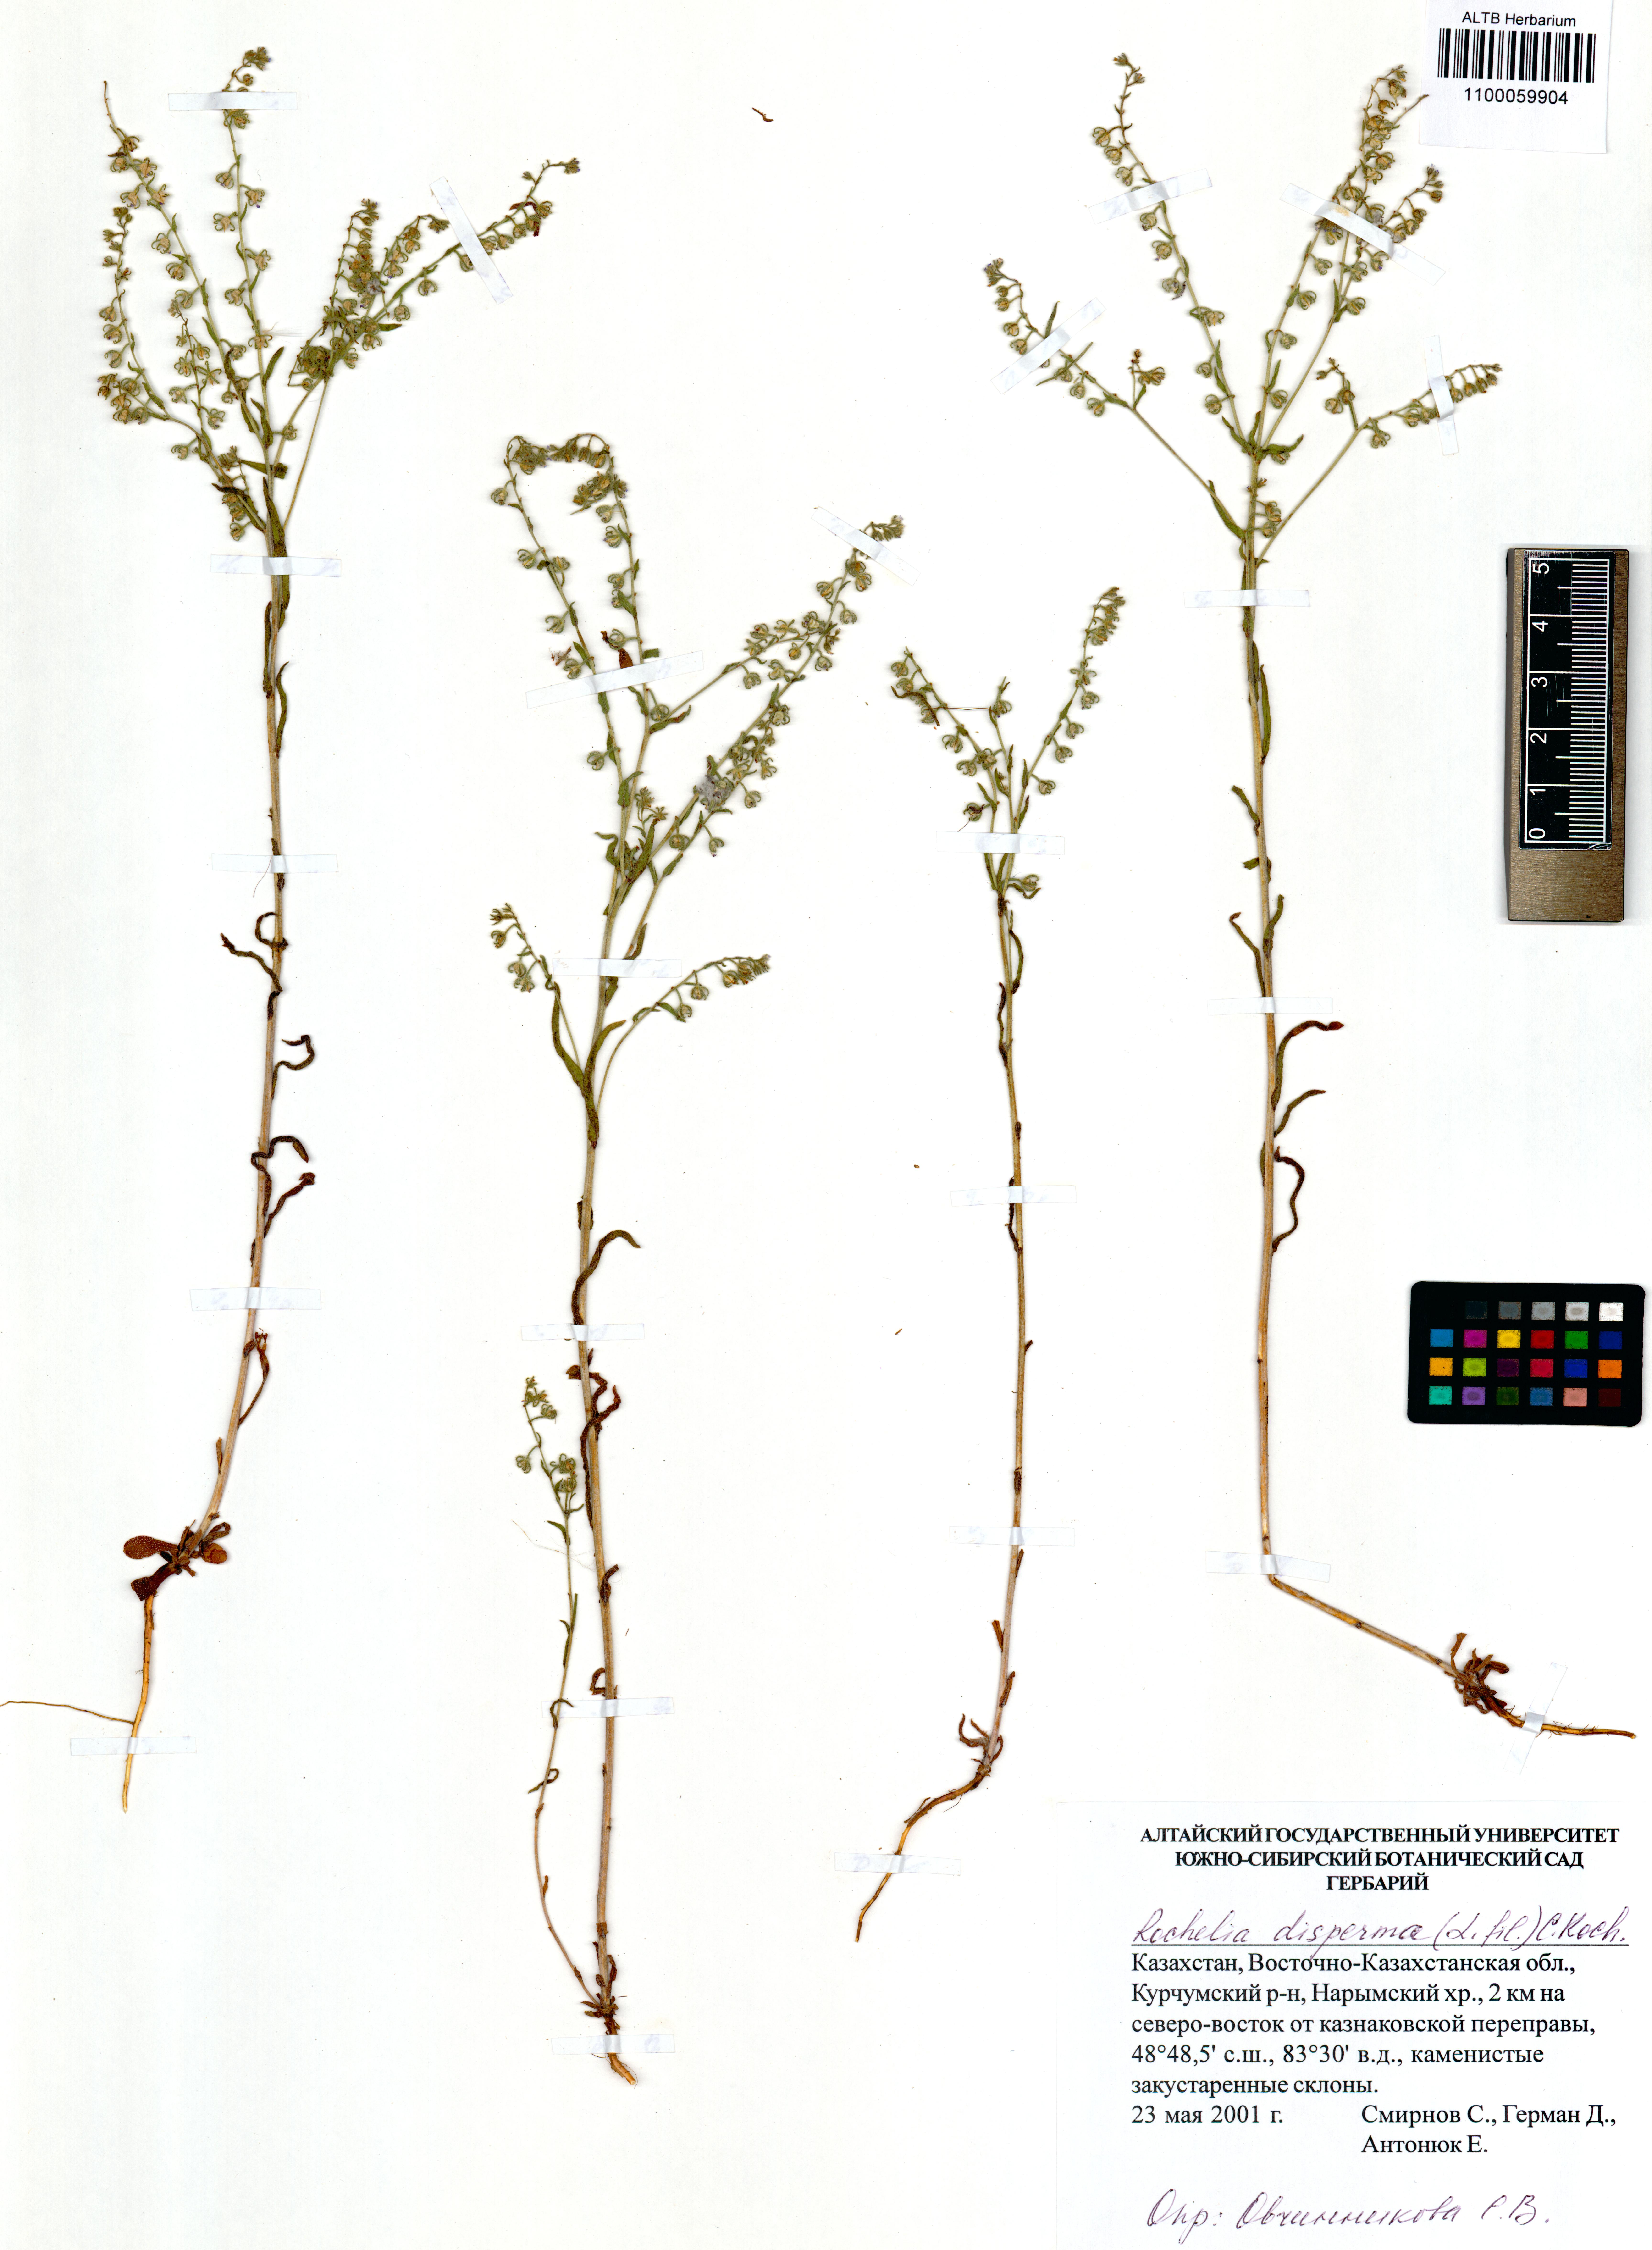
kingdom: Plantae
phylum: Tracheophyta
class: Magnoliopsida
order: Boraginales
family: Boraginaceae
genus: Rochelia
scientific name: Rochelia bungei
